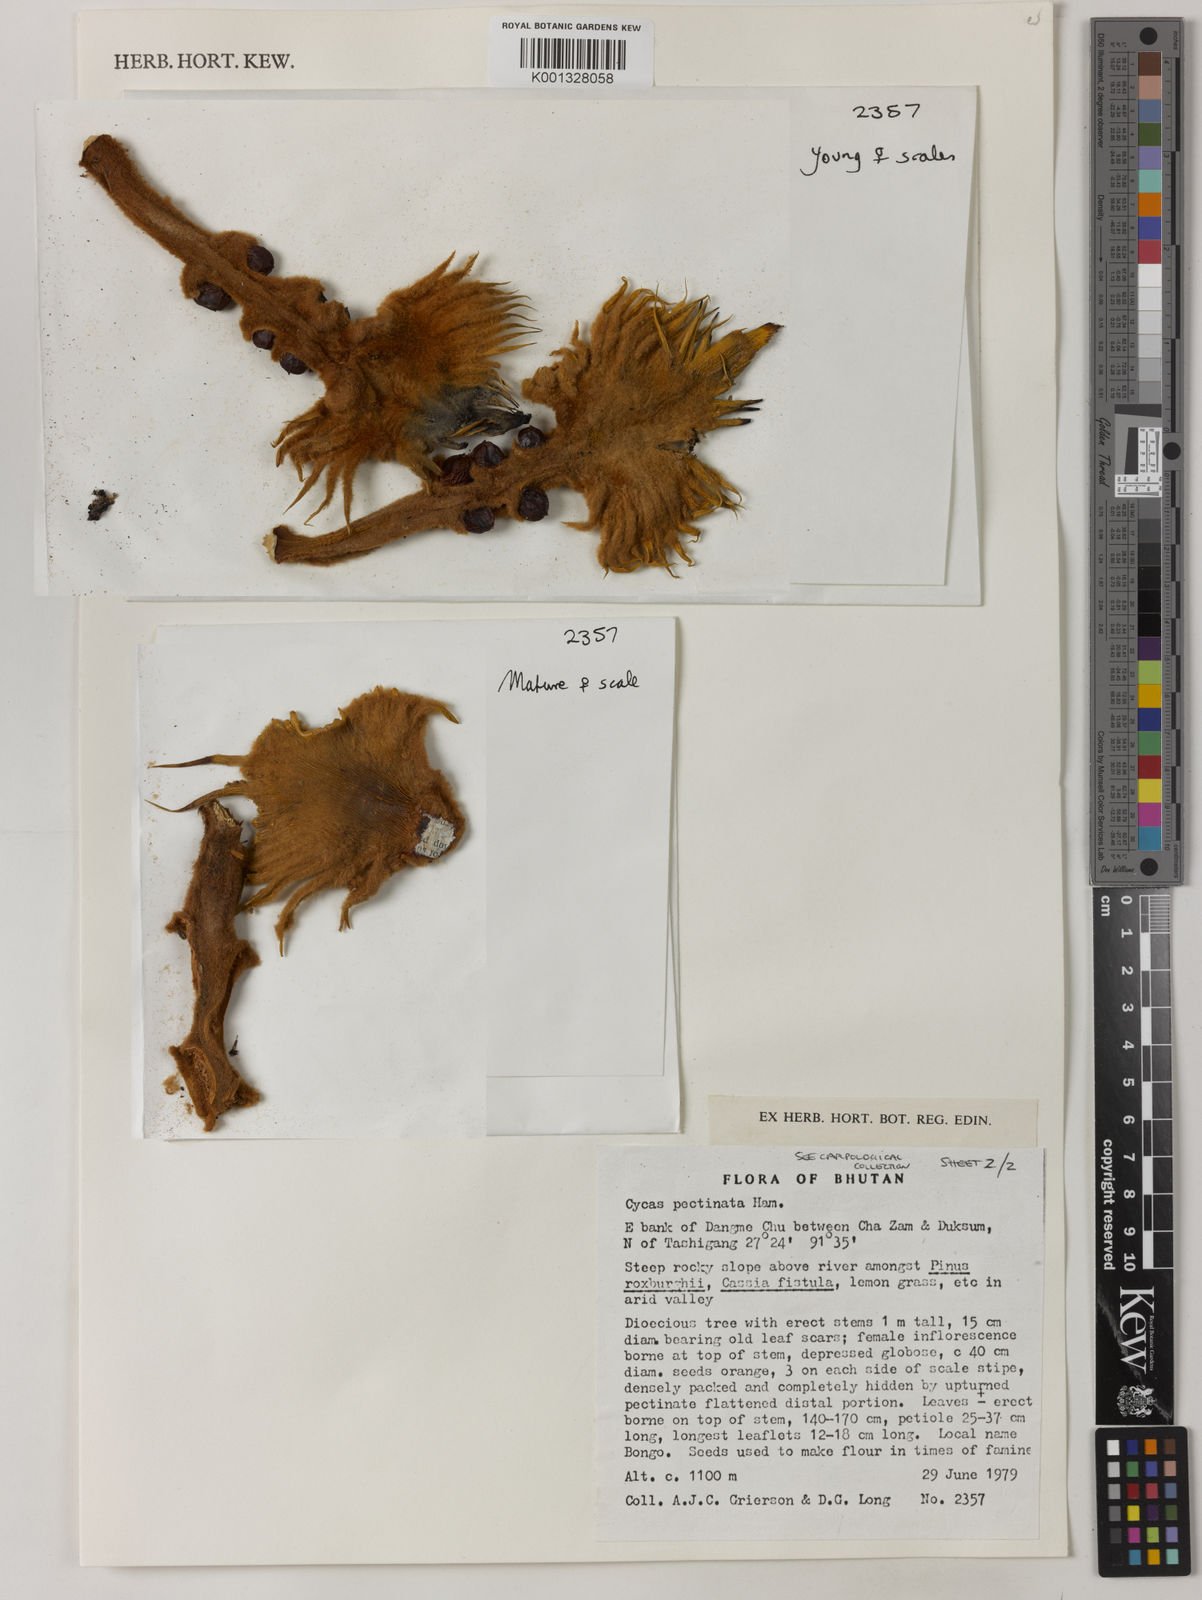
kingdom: Plantae
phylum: Tracheophyta
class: Cycadopsida
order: Cycadales
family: Cycadaceae
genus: Cycas
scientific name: Cycas pectinata
